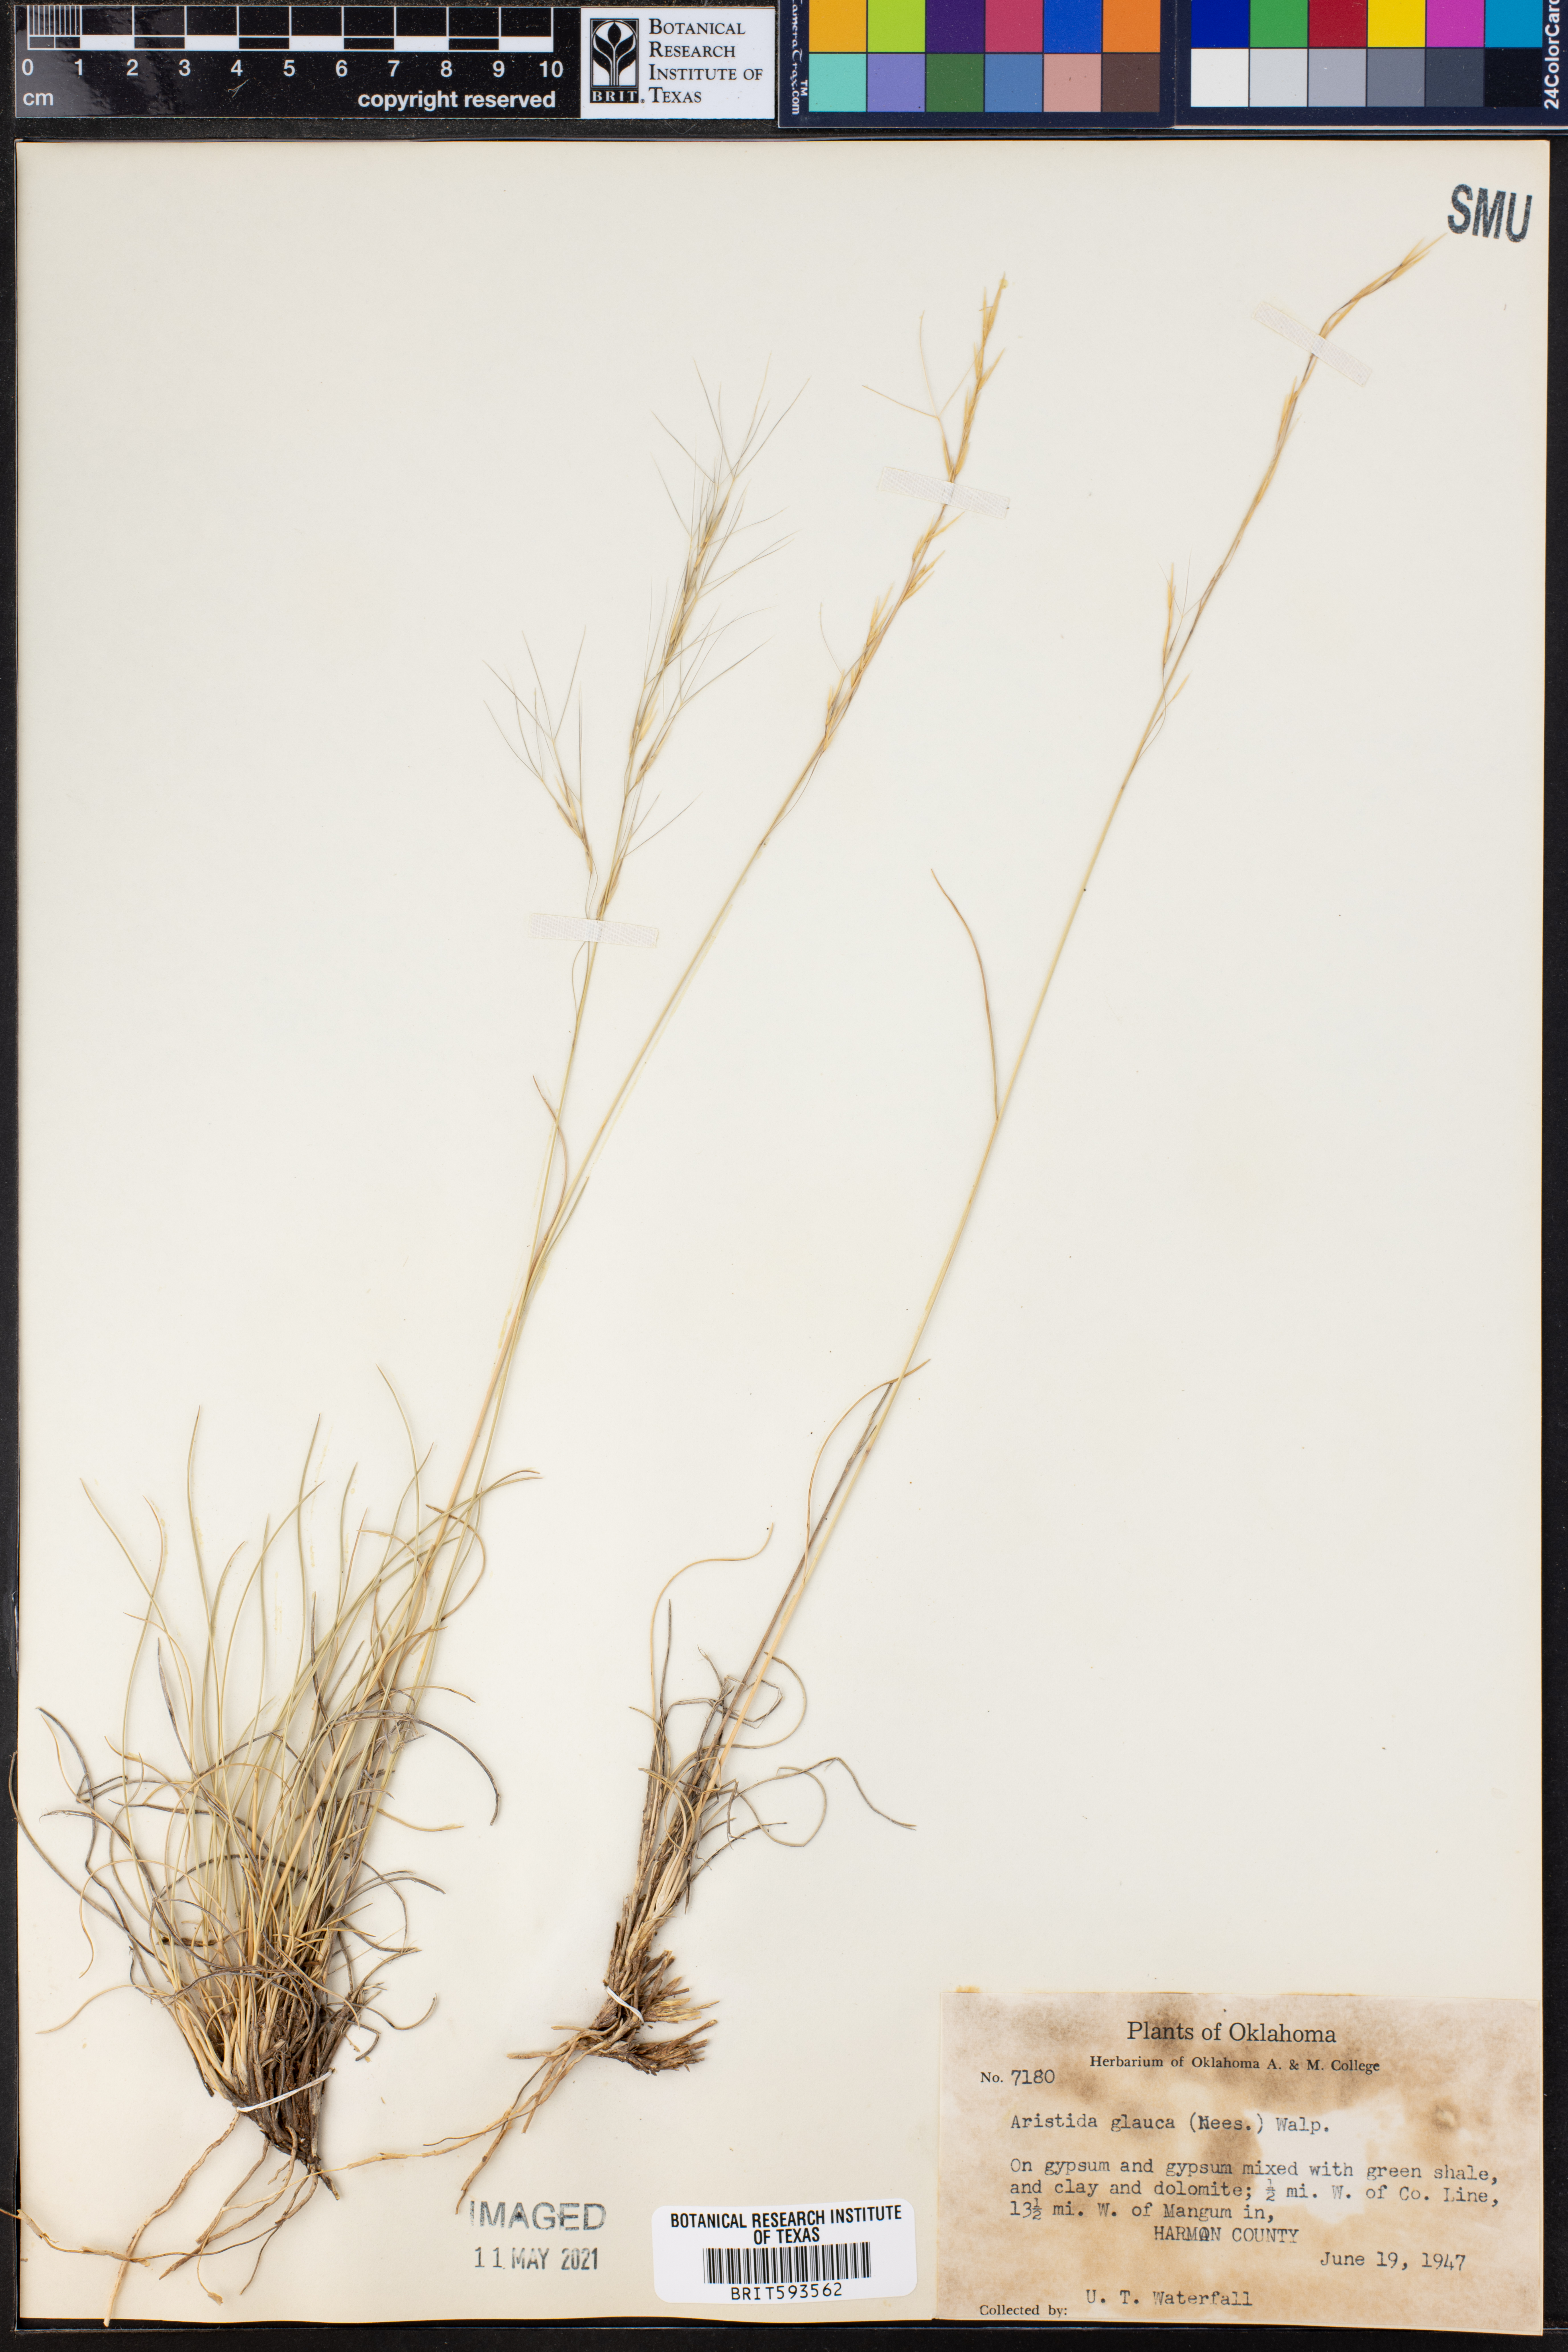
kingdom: Plantae
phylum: Tracheophyta
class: Liliopsida
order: Poales
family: Poaceae
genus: Aristida
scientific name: Aristida glauca
